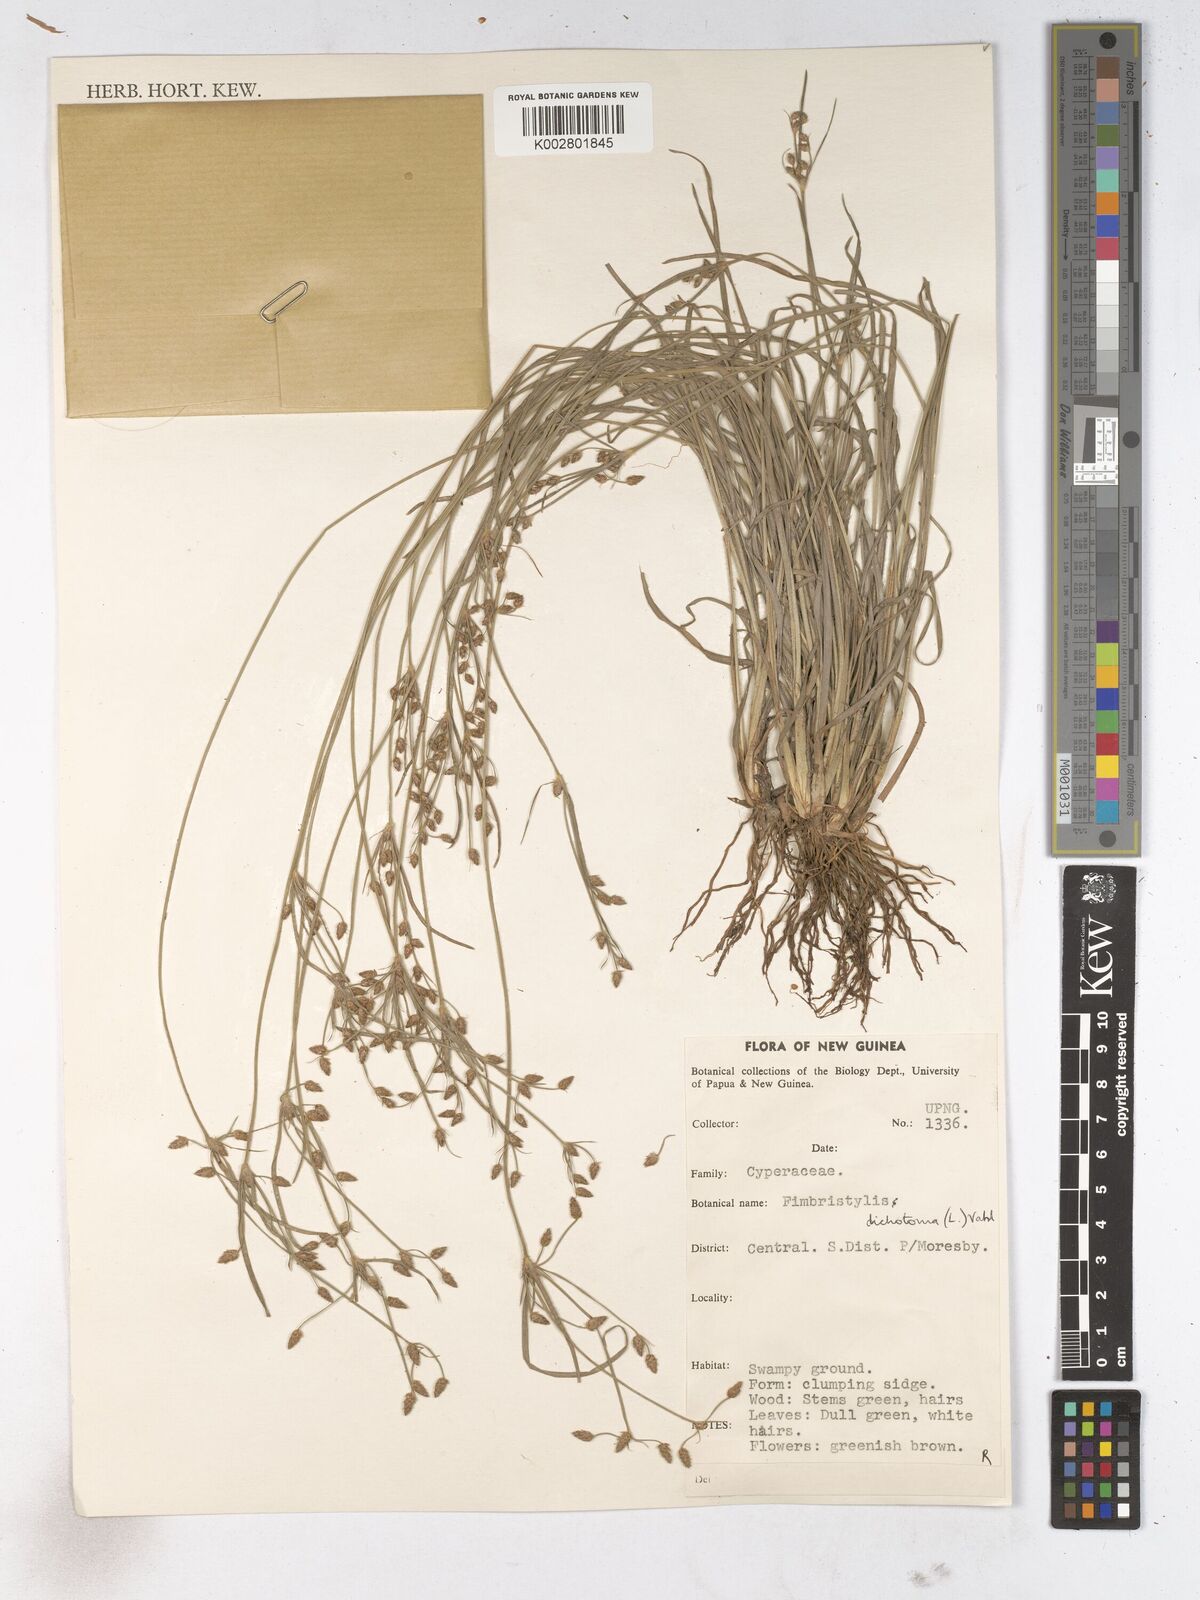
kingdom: Plantae
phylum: Tracheophyta
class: Liliopsida
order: Poales
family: Cyperaceae
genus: Fimbristylis
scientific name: Fimbristylis dichotoma
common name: Forked fimbry
